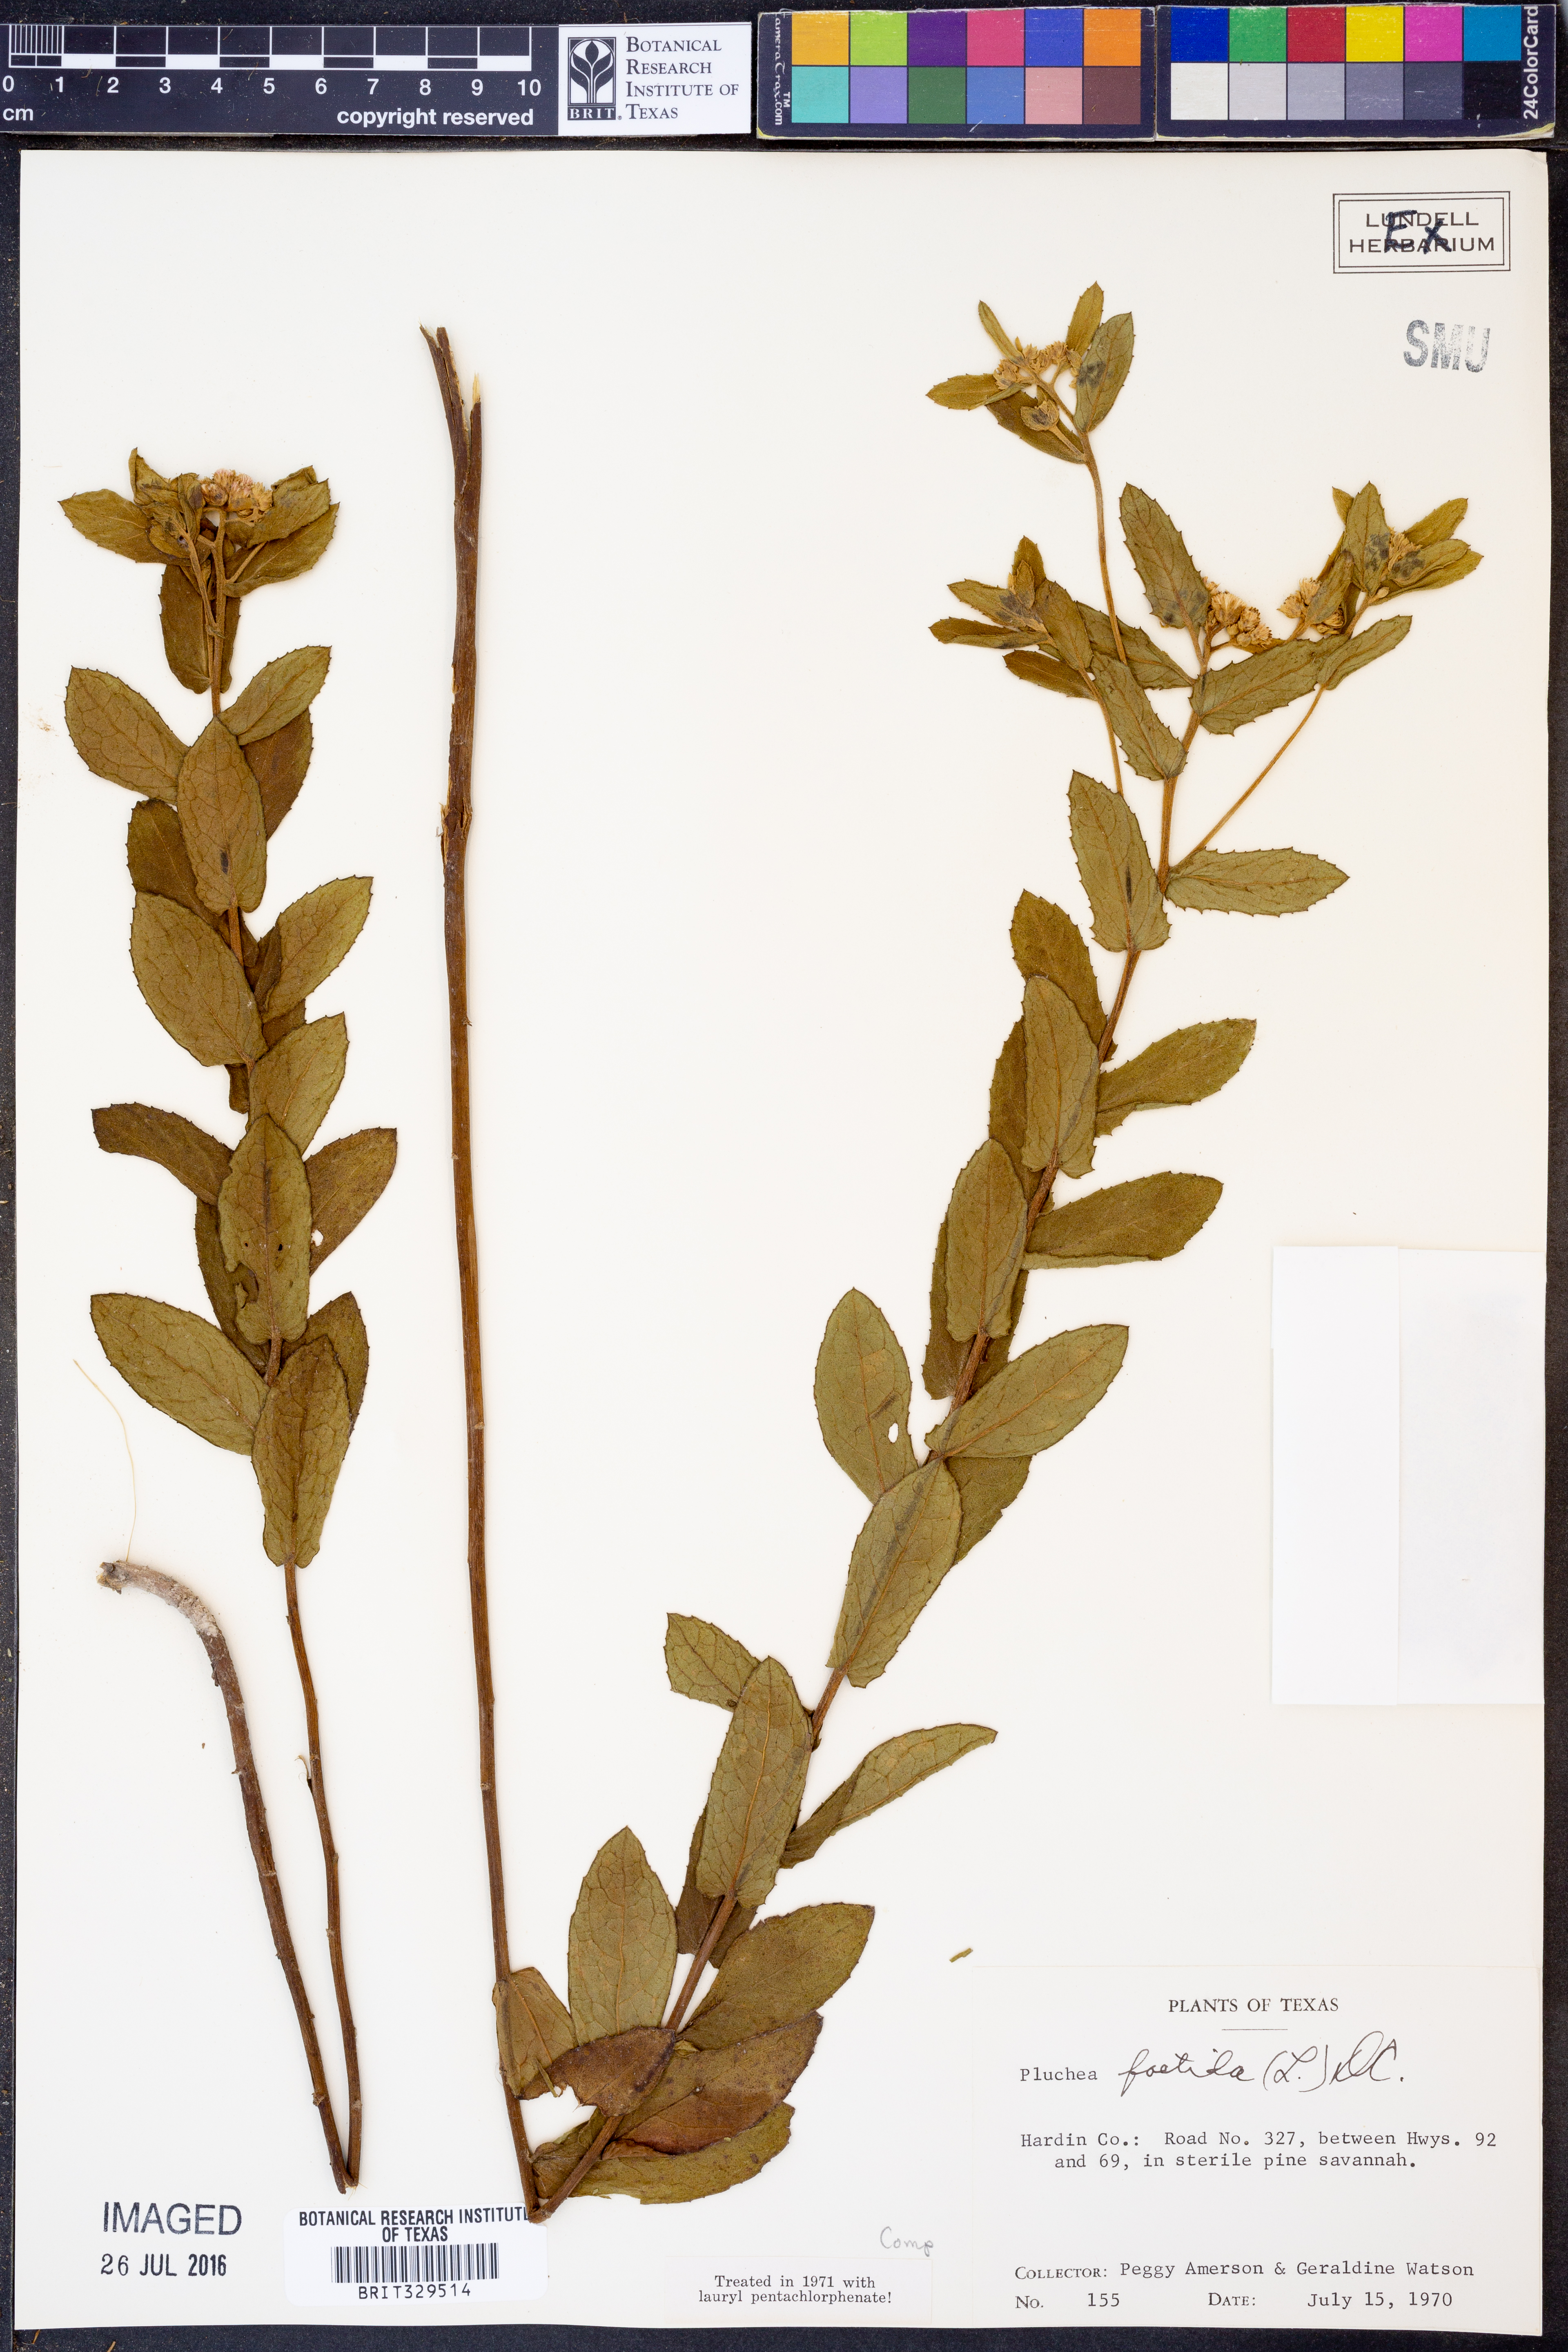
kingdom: Plantae
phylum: Tracheophyta
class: Magnoliopsida
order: Asterales
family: Asteraceae
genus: Pluchea
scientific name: Pluchea foetida
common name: Stinking camphorweed
